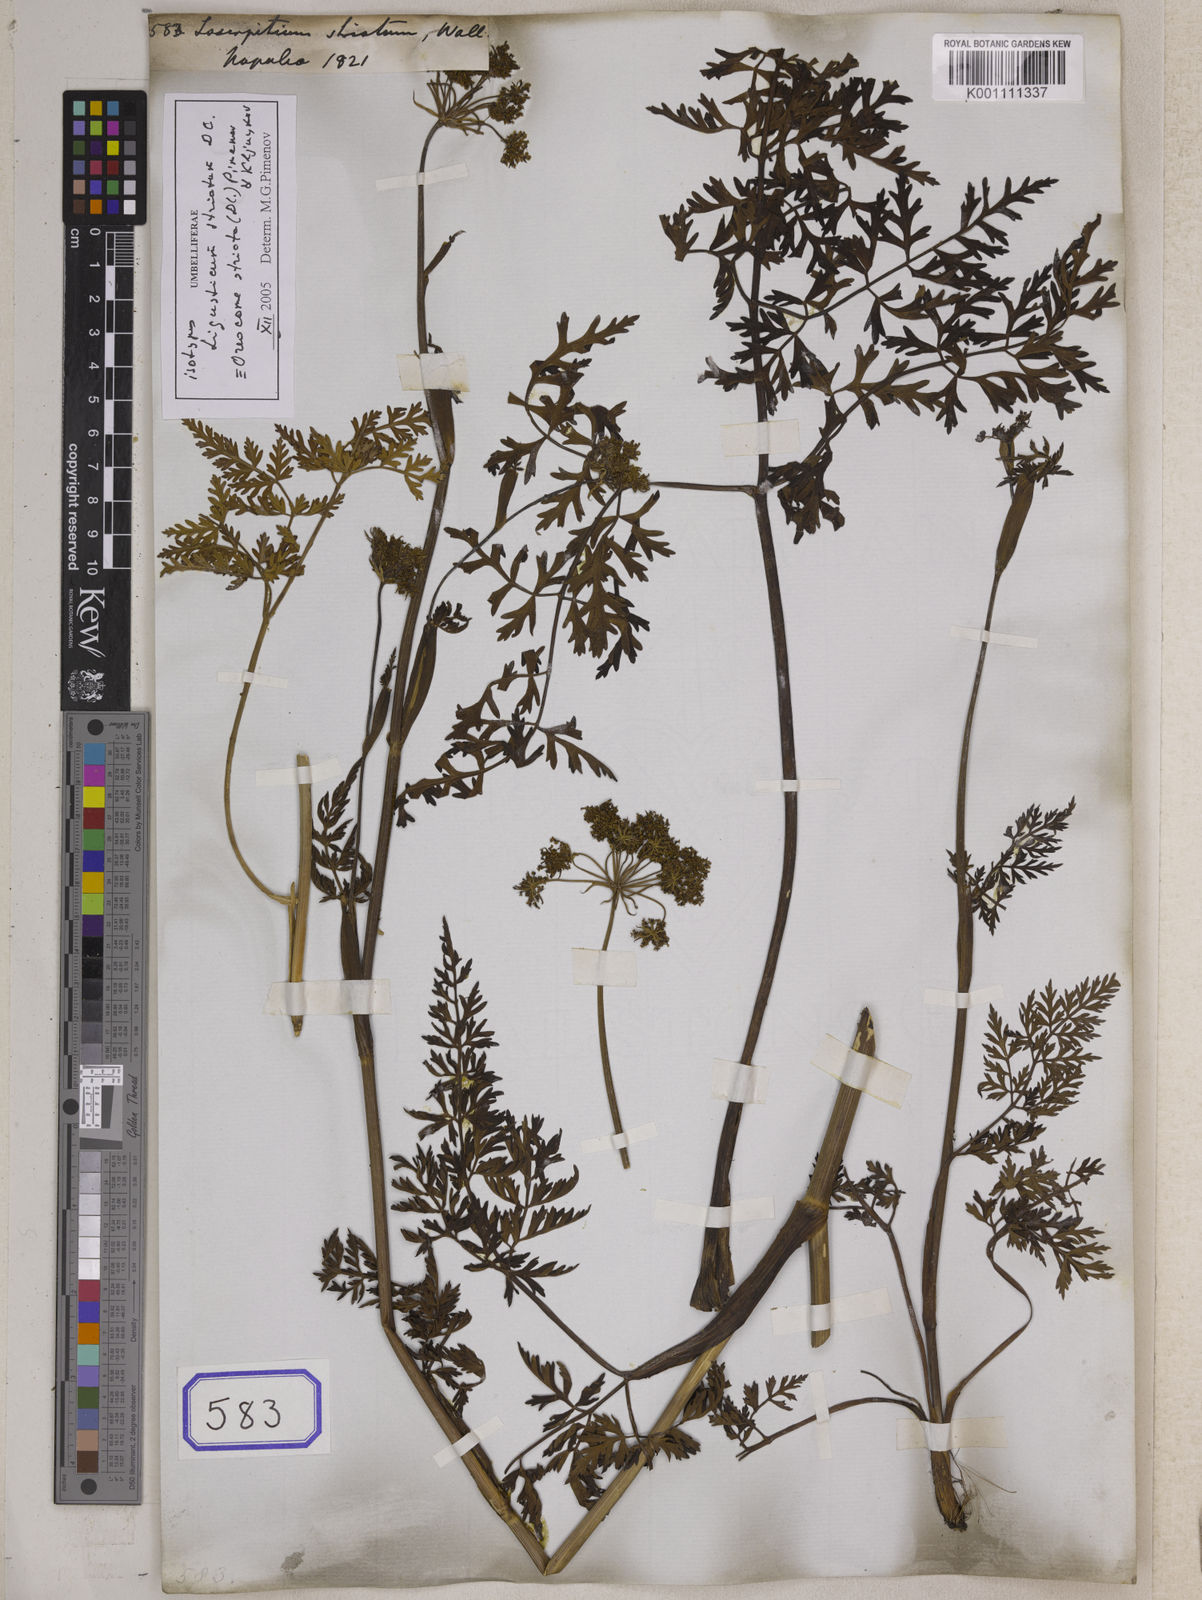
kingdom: Plantae
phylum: Tracheophyta
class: Magnoliopsida
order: Apiales
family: Apiaceae
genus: Oreocome
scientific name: Oreocome striata
